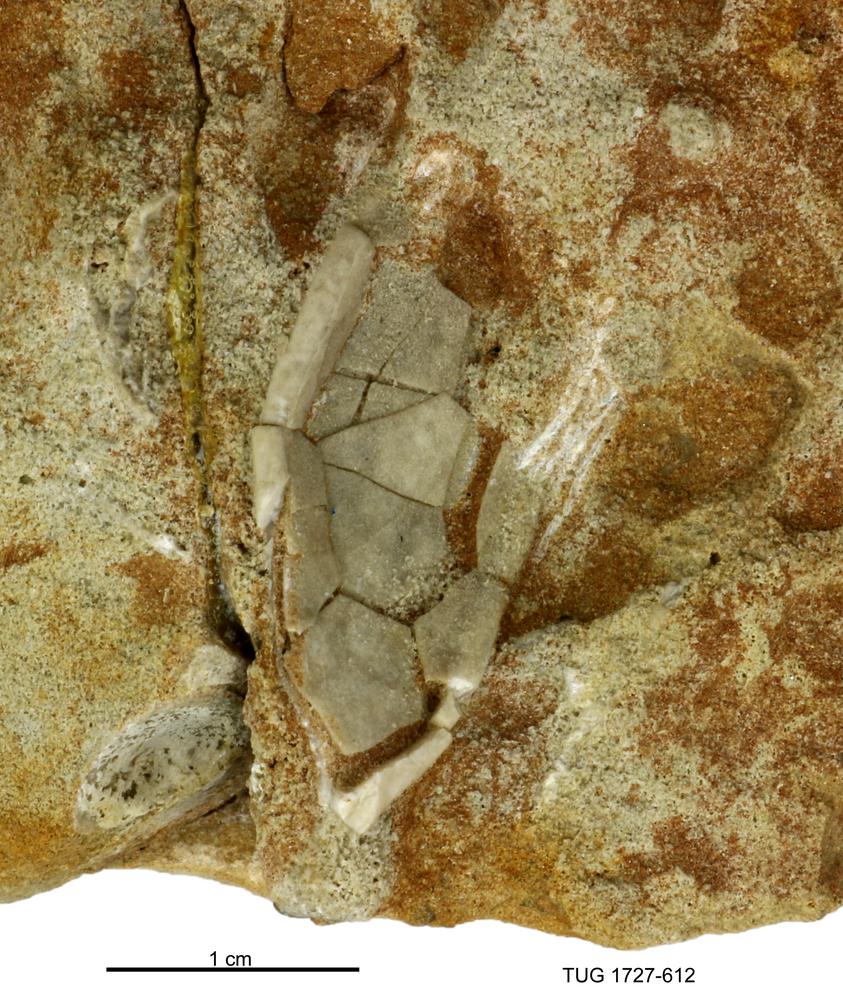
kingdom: Animalia
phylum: Echinodermata
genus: Rhipidocystis
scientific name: Rhipidocystis
